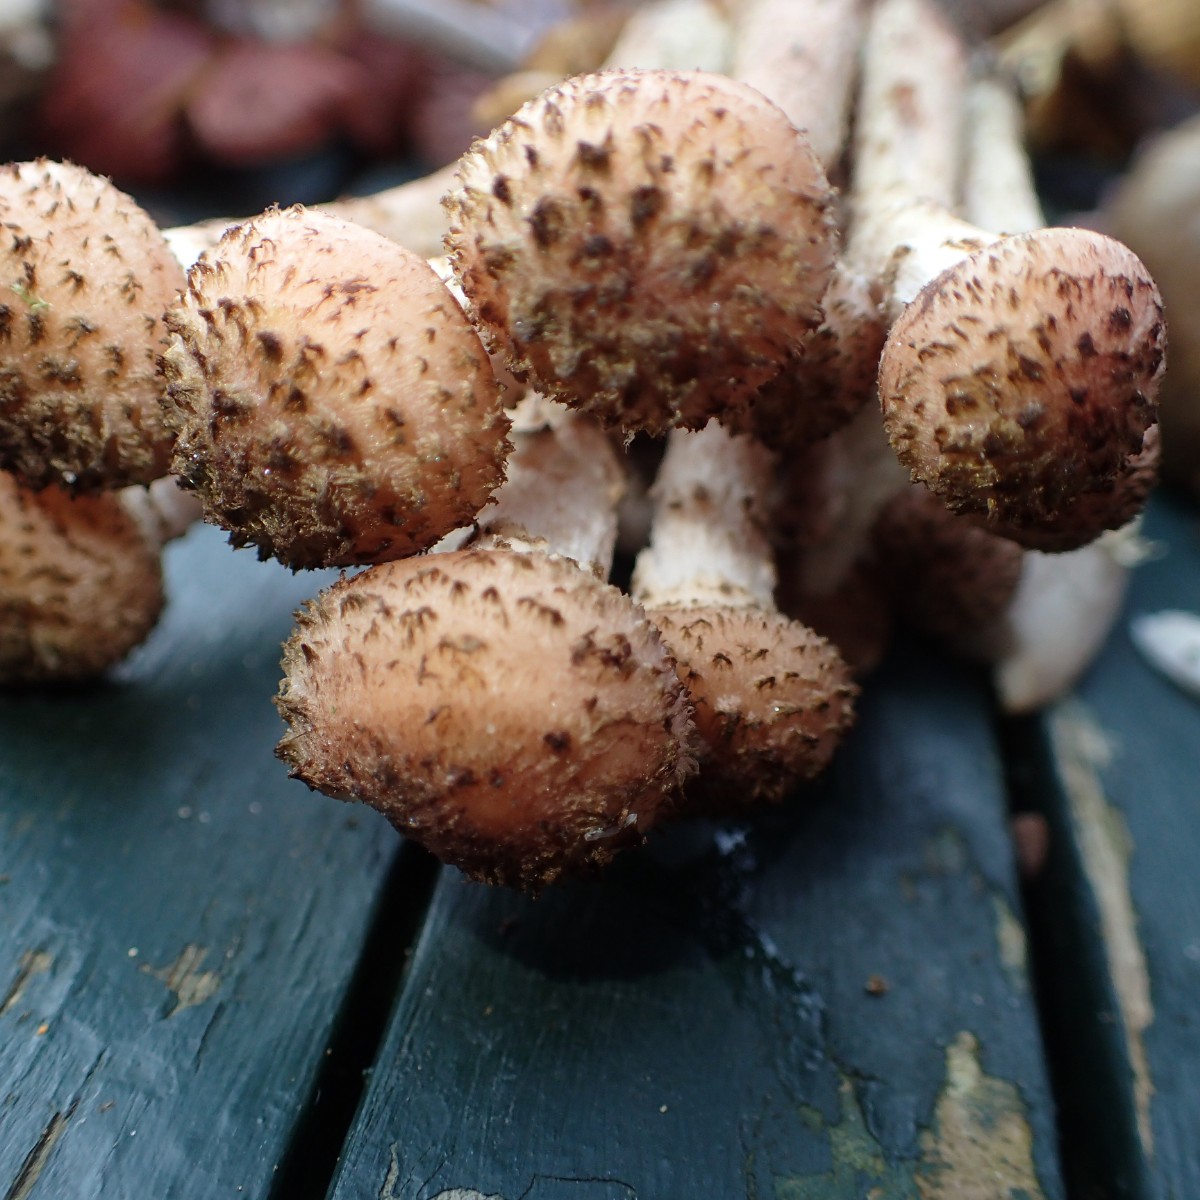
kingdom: Fungi
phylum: Basidiomycota
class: Agaricomycetes
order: Agaricales
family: Physalacriaceae
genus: Armillaria
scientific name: Armillaria ostoyae
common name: mørk honningsvamp
